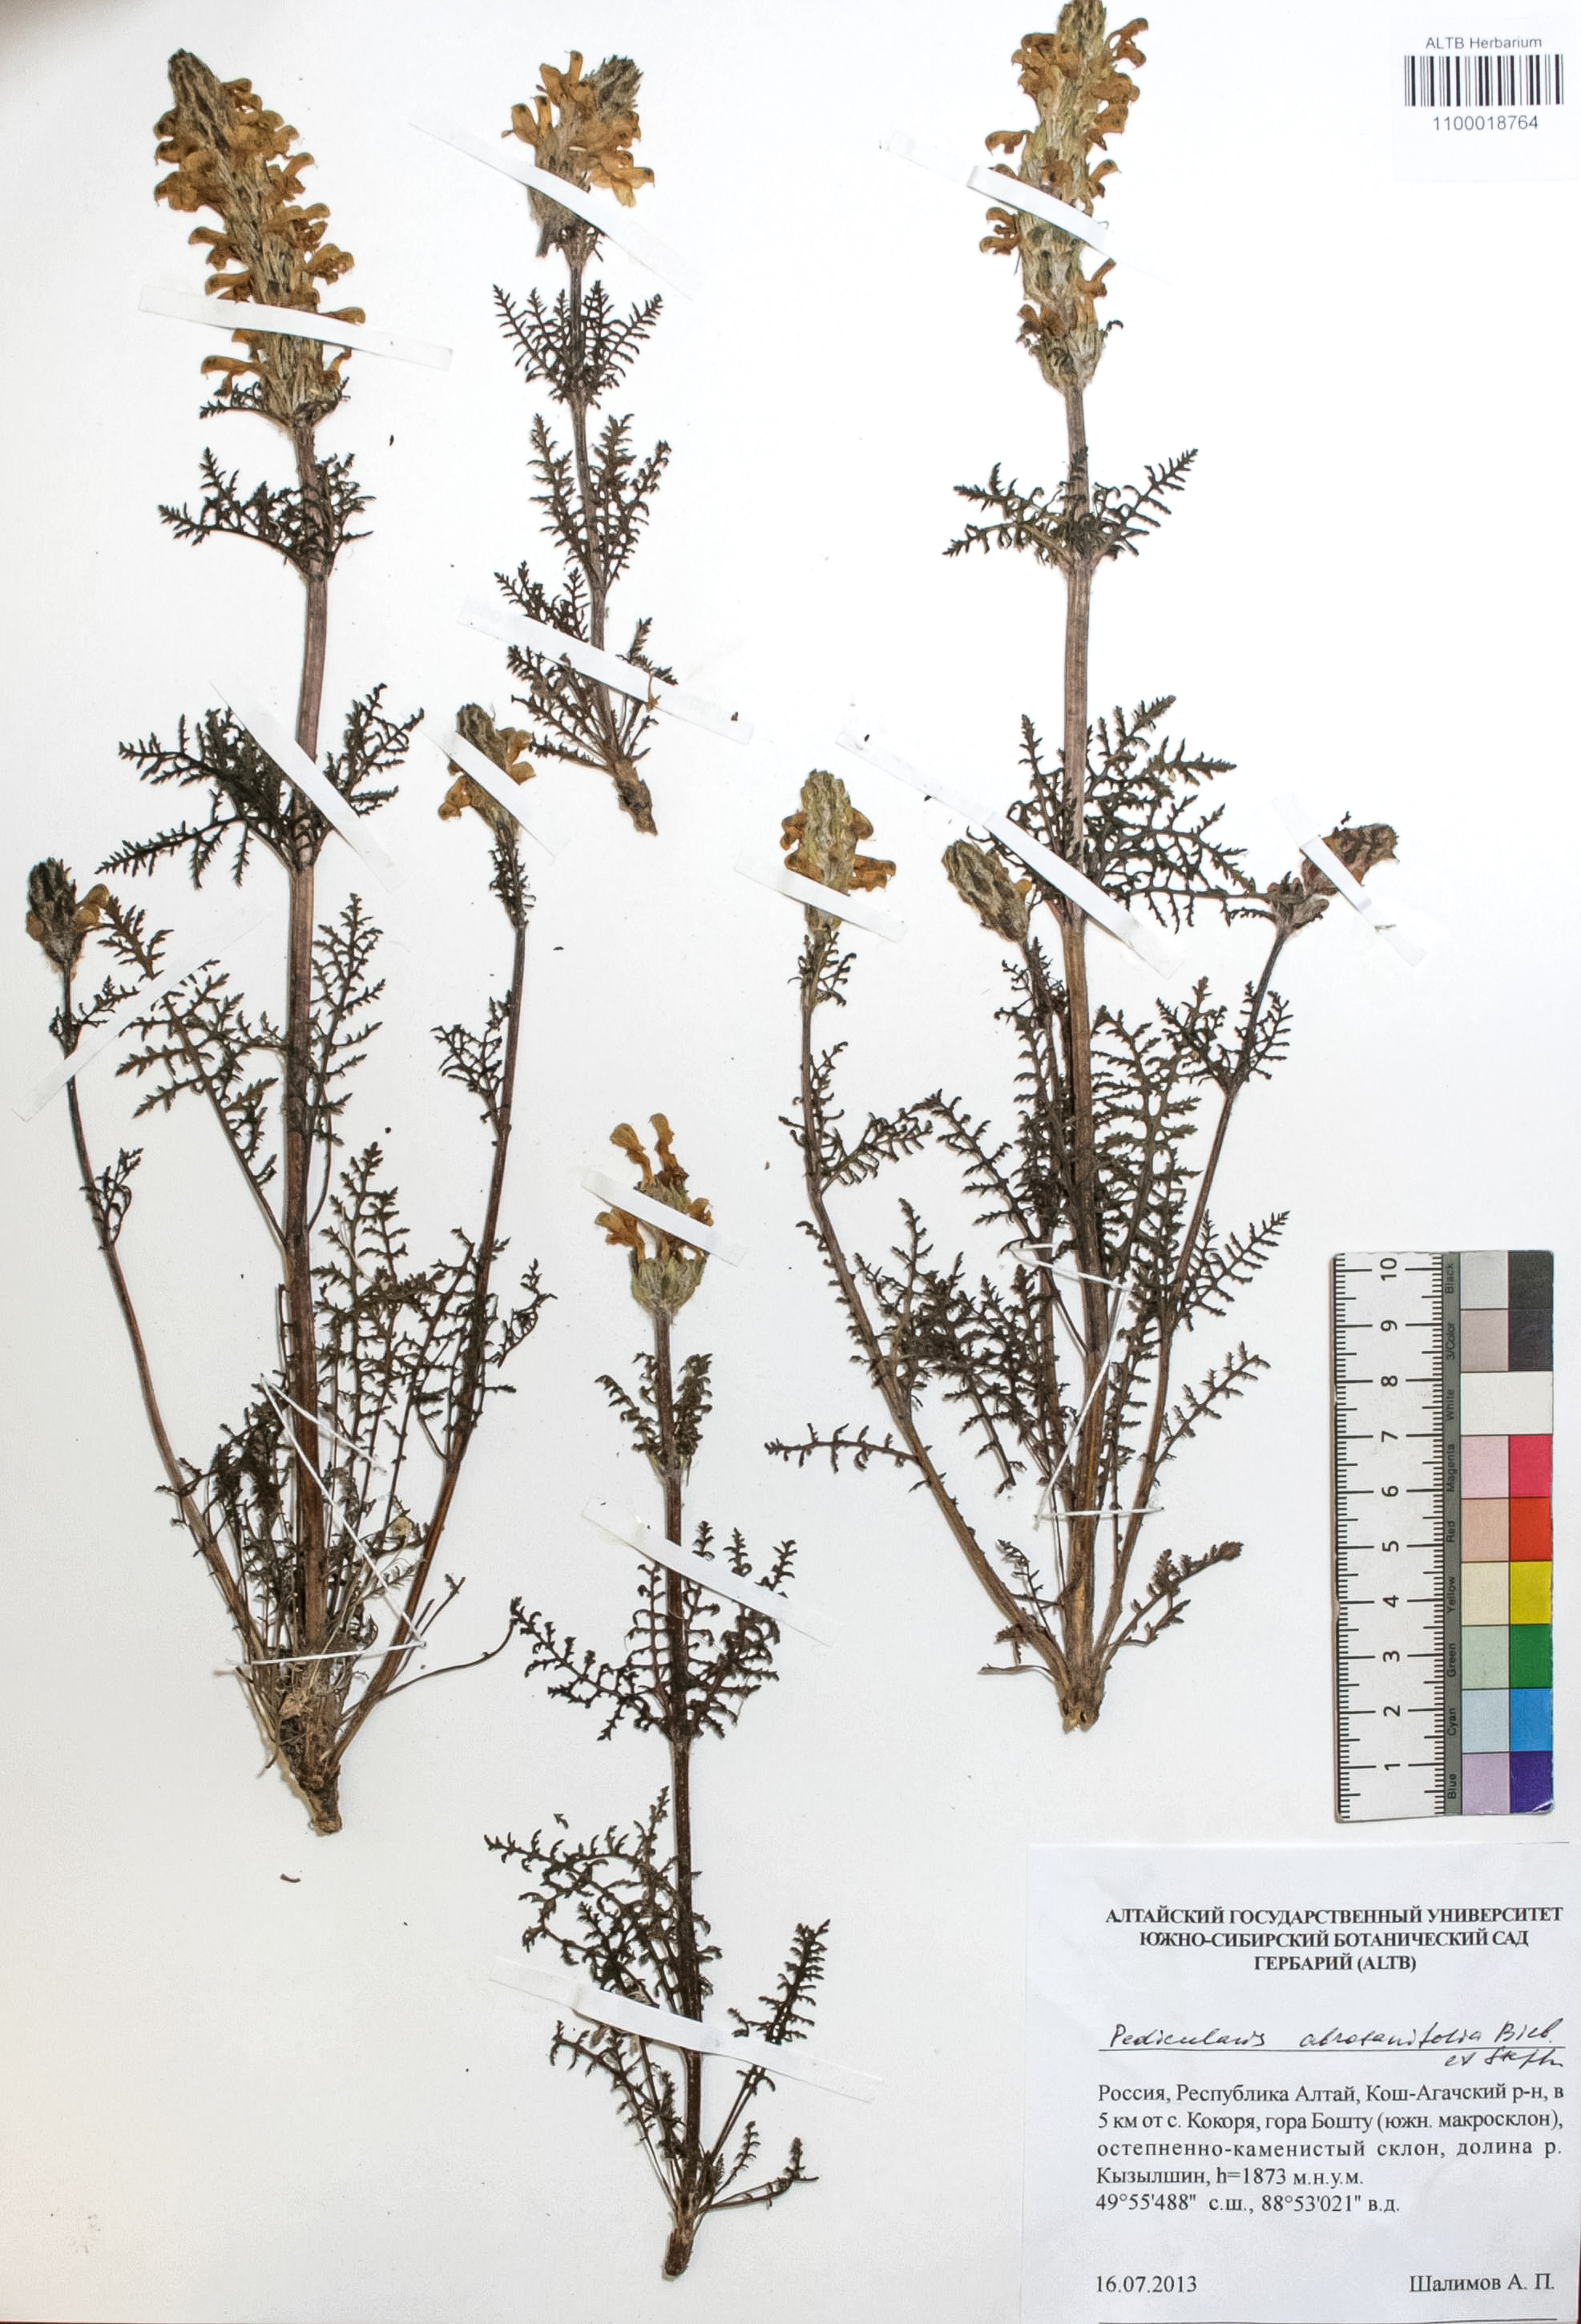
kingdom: Plantae
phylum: Tracheophyta
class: Magnoliopsida
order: Lamiales
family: Orobanchaceae
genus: Pedicularis
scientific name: Pedicularis abrotanifolia
